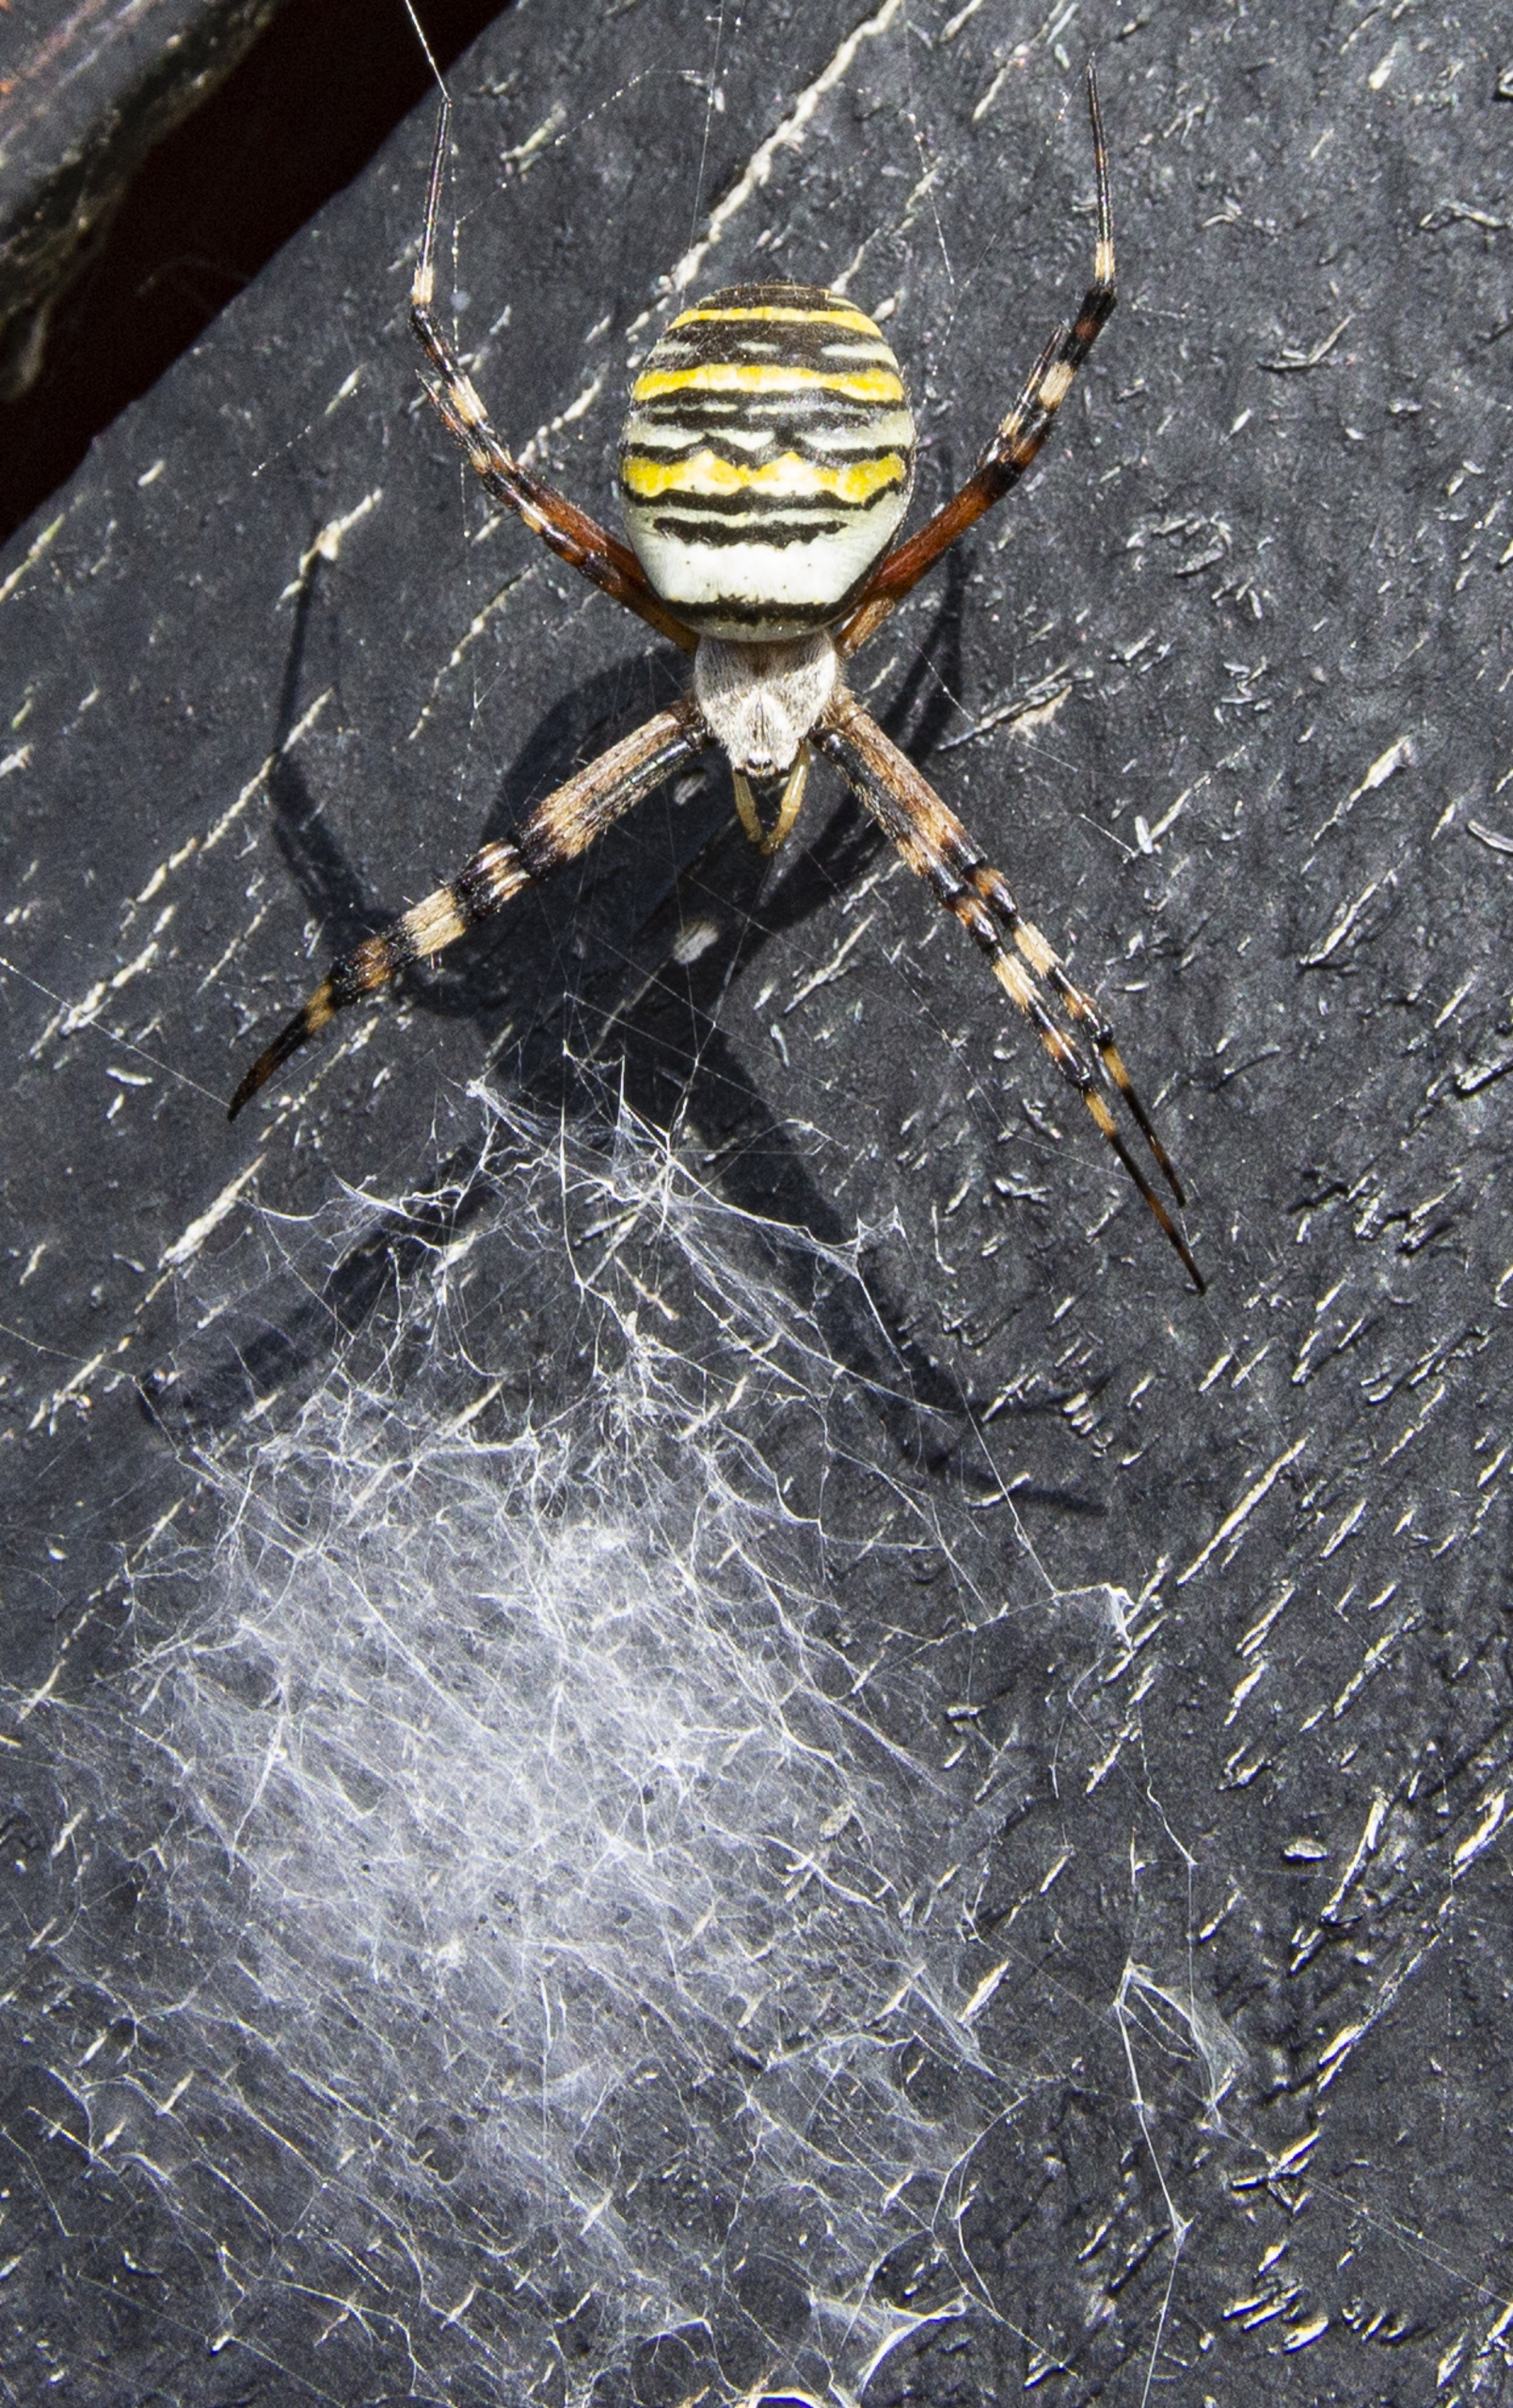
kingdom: Animalia
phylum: Arthropoda
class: Arachnida
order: Araneae
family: Araneidae
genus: Argiope
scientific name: Argiope bruennichi
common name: Hvepseedderkop
